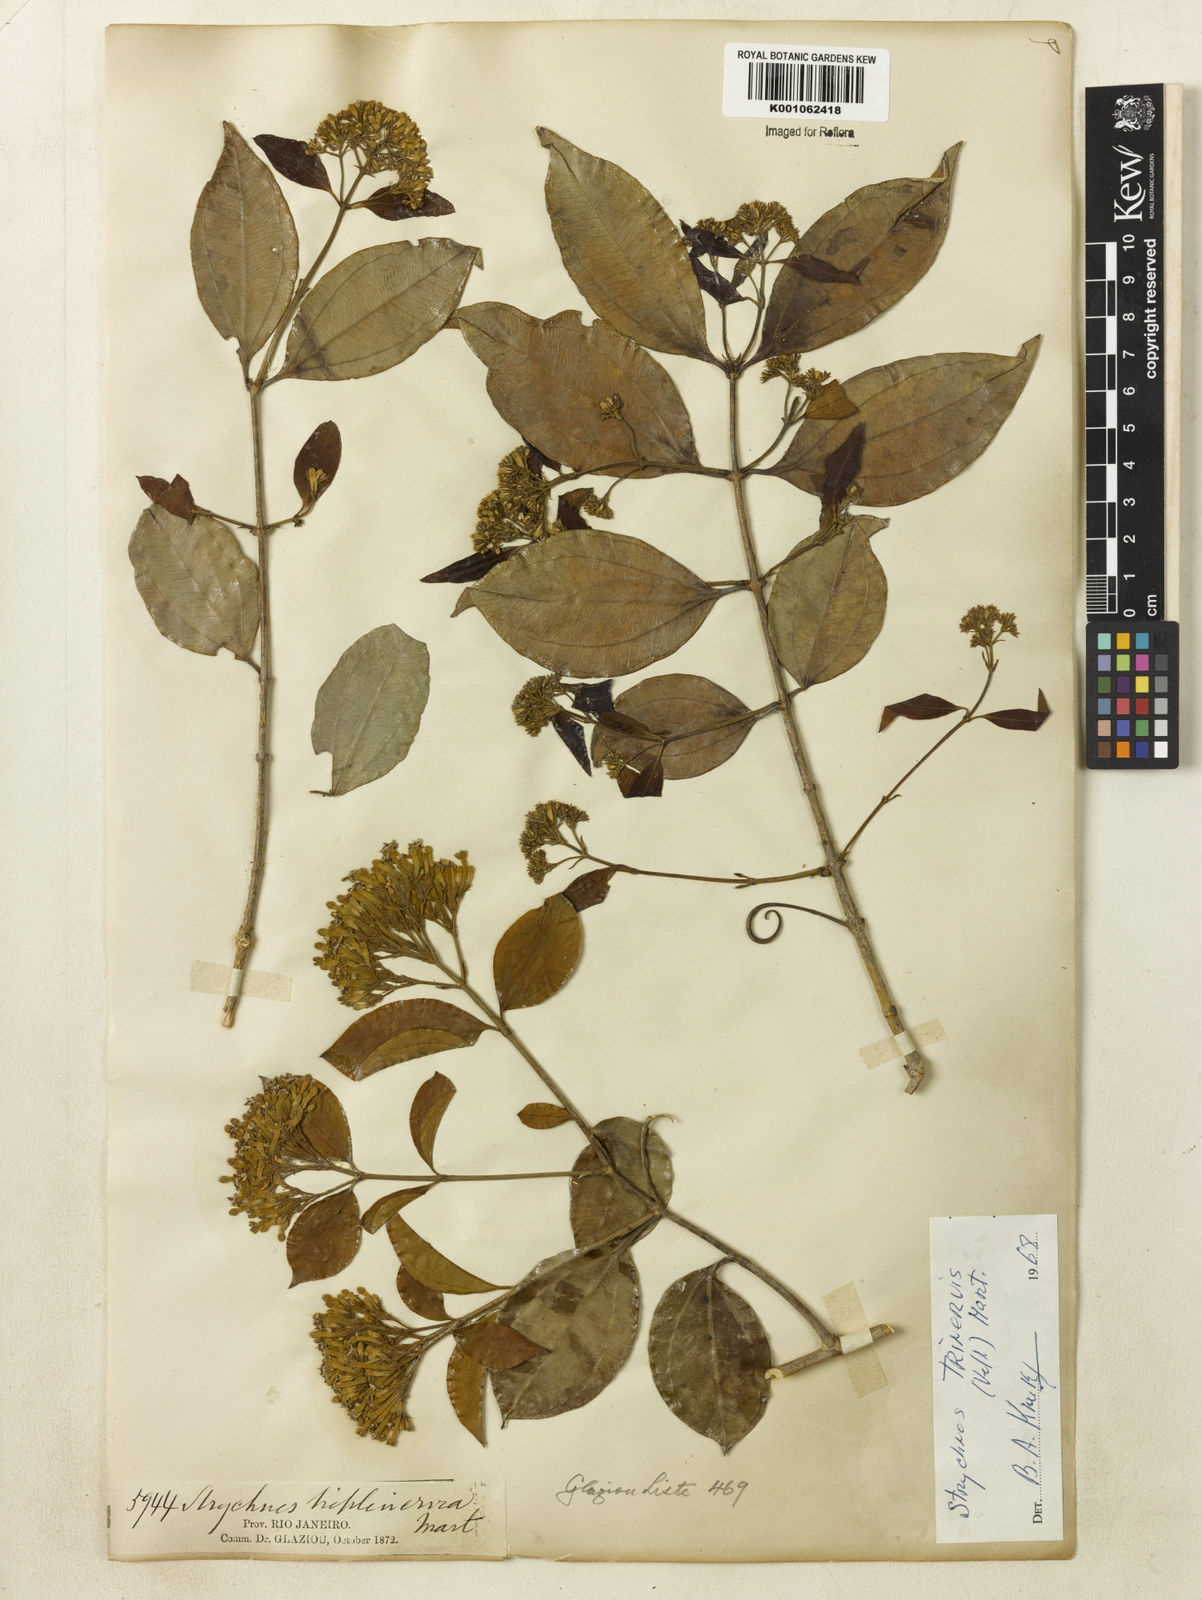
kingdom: Plantae
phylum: Tracheophyta
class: Magnoliopsida
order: Gentianales
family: Loganiaceae
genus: Strychnos
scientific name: Strychnos
